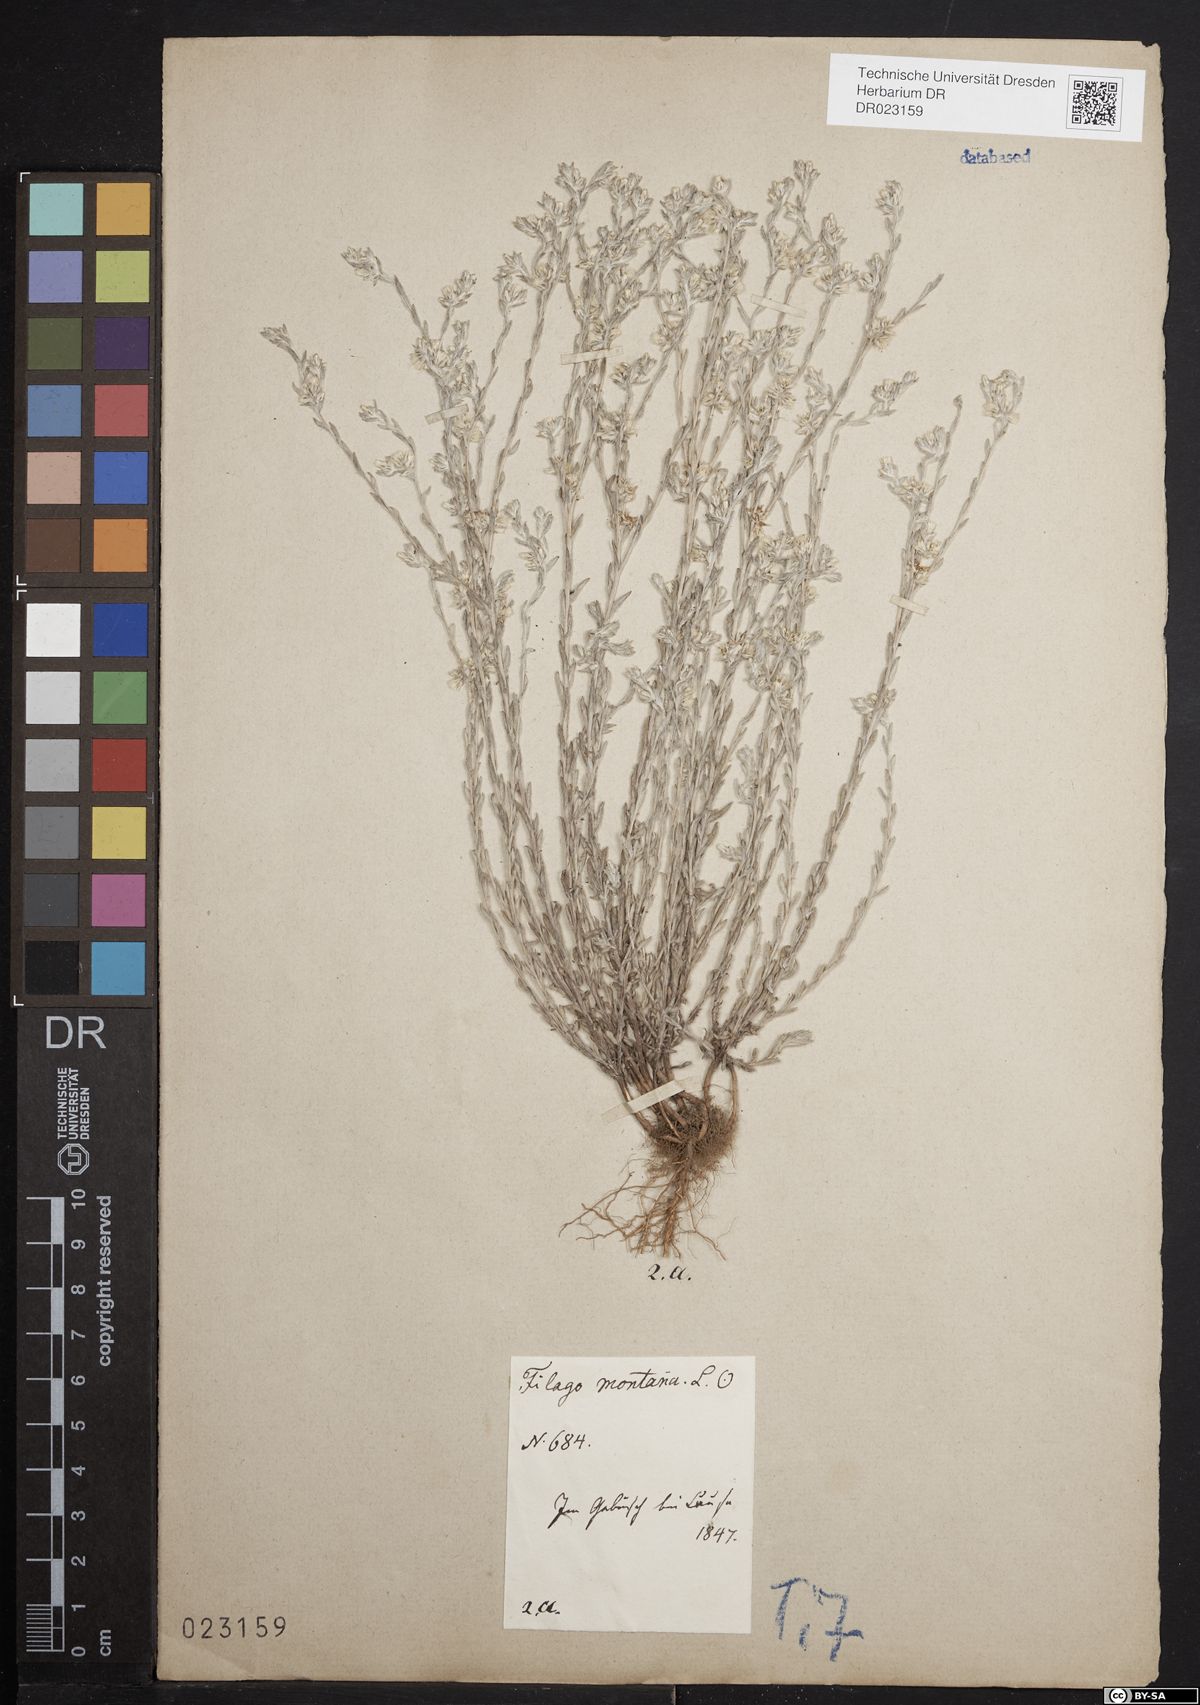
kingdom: Plantae
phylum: Tracheophyta
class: Magnoliopsida
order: Asterales
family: Asteraceae
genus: Logfia
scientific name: Logfia minima
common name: Little cottonrose
